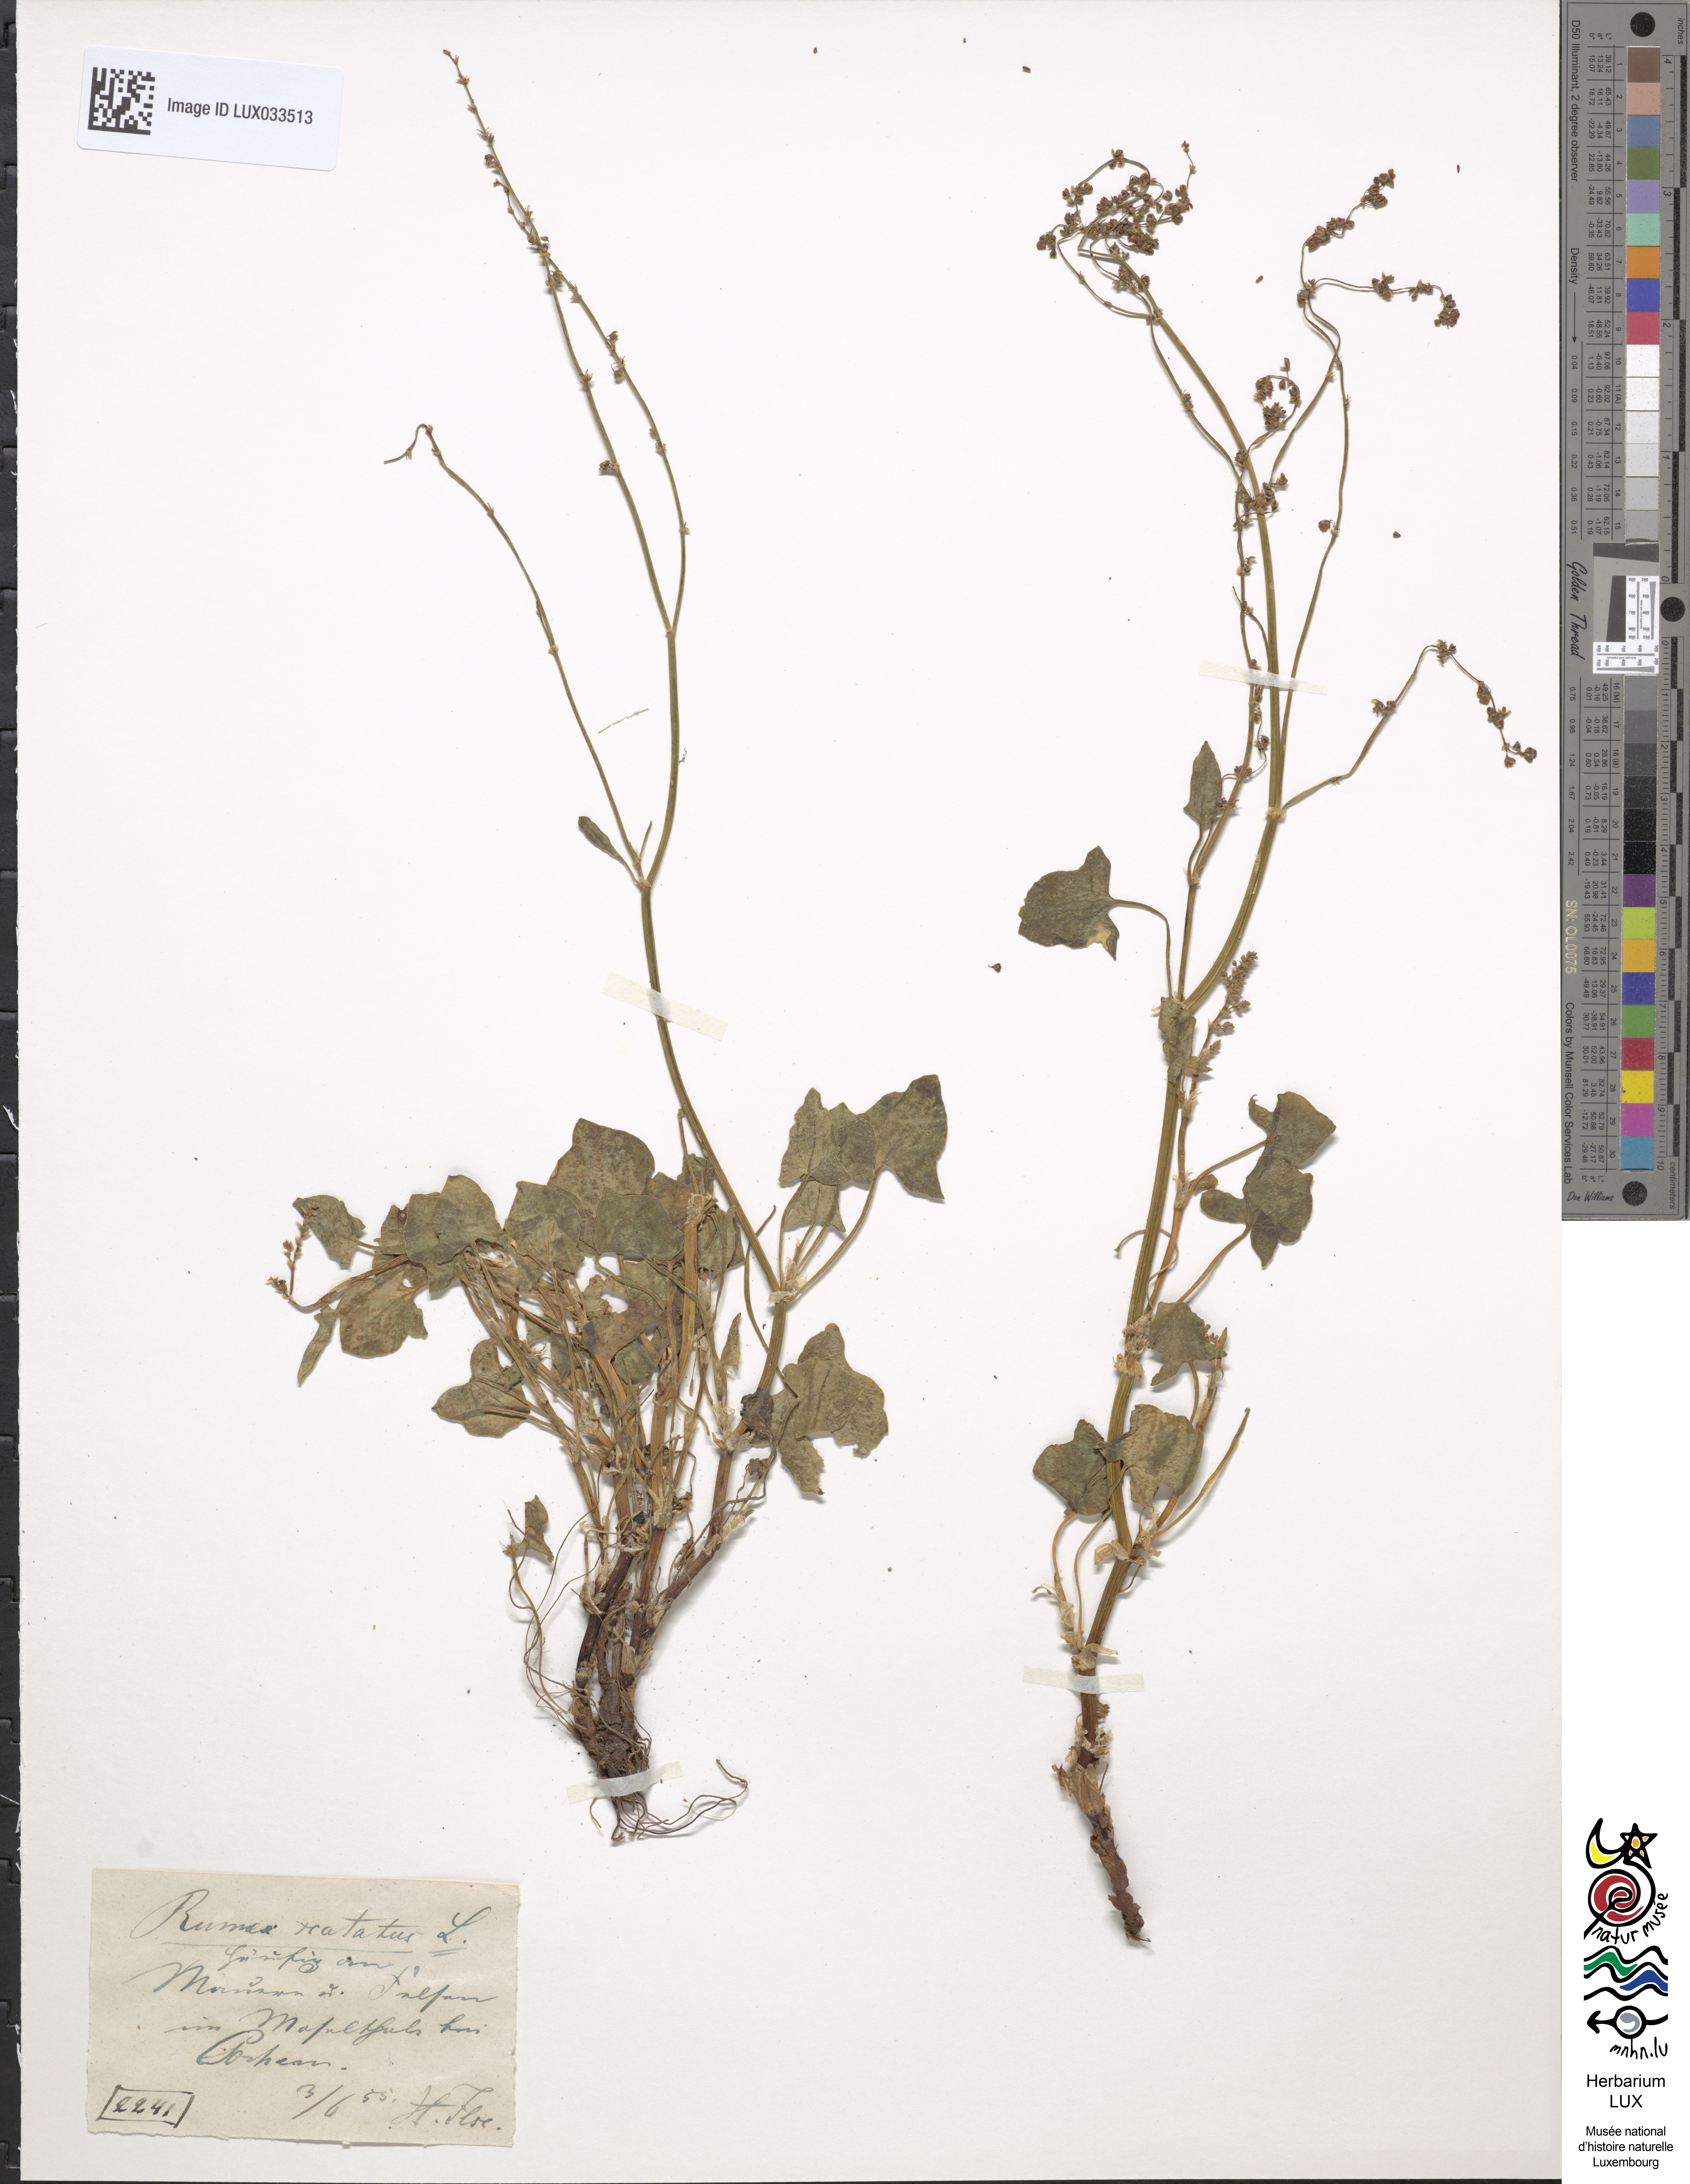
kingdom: Plantae
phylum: Tracheophyta
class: Magnoliopsida
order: Caryophyllales
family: Polygonaceae
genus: Rumex
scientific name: Rumex scutatus
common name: French sorrel
